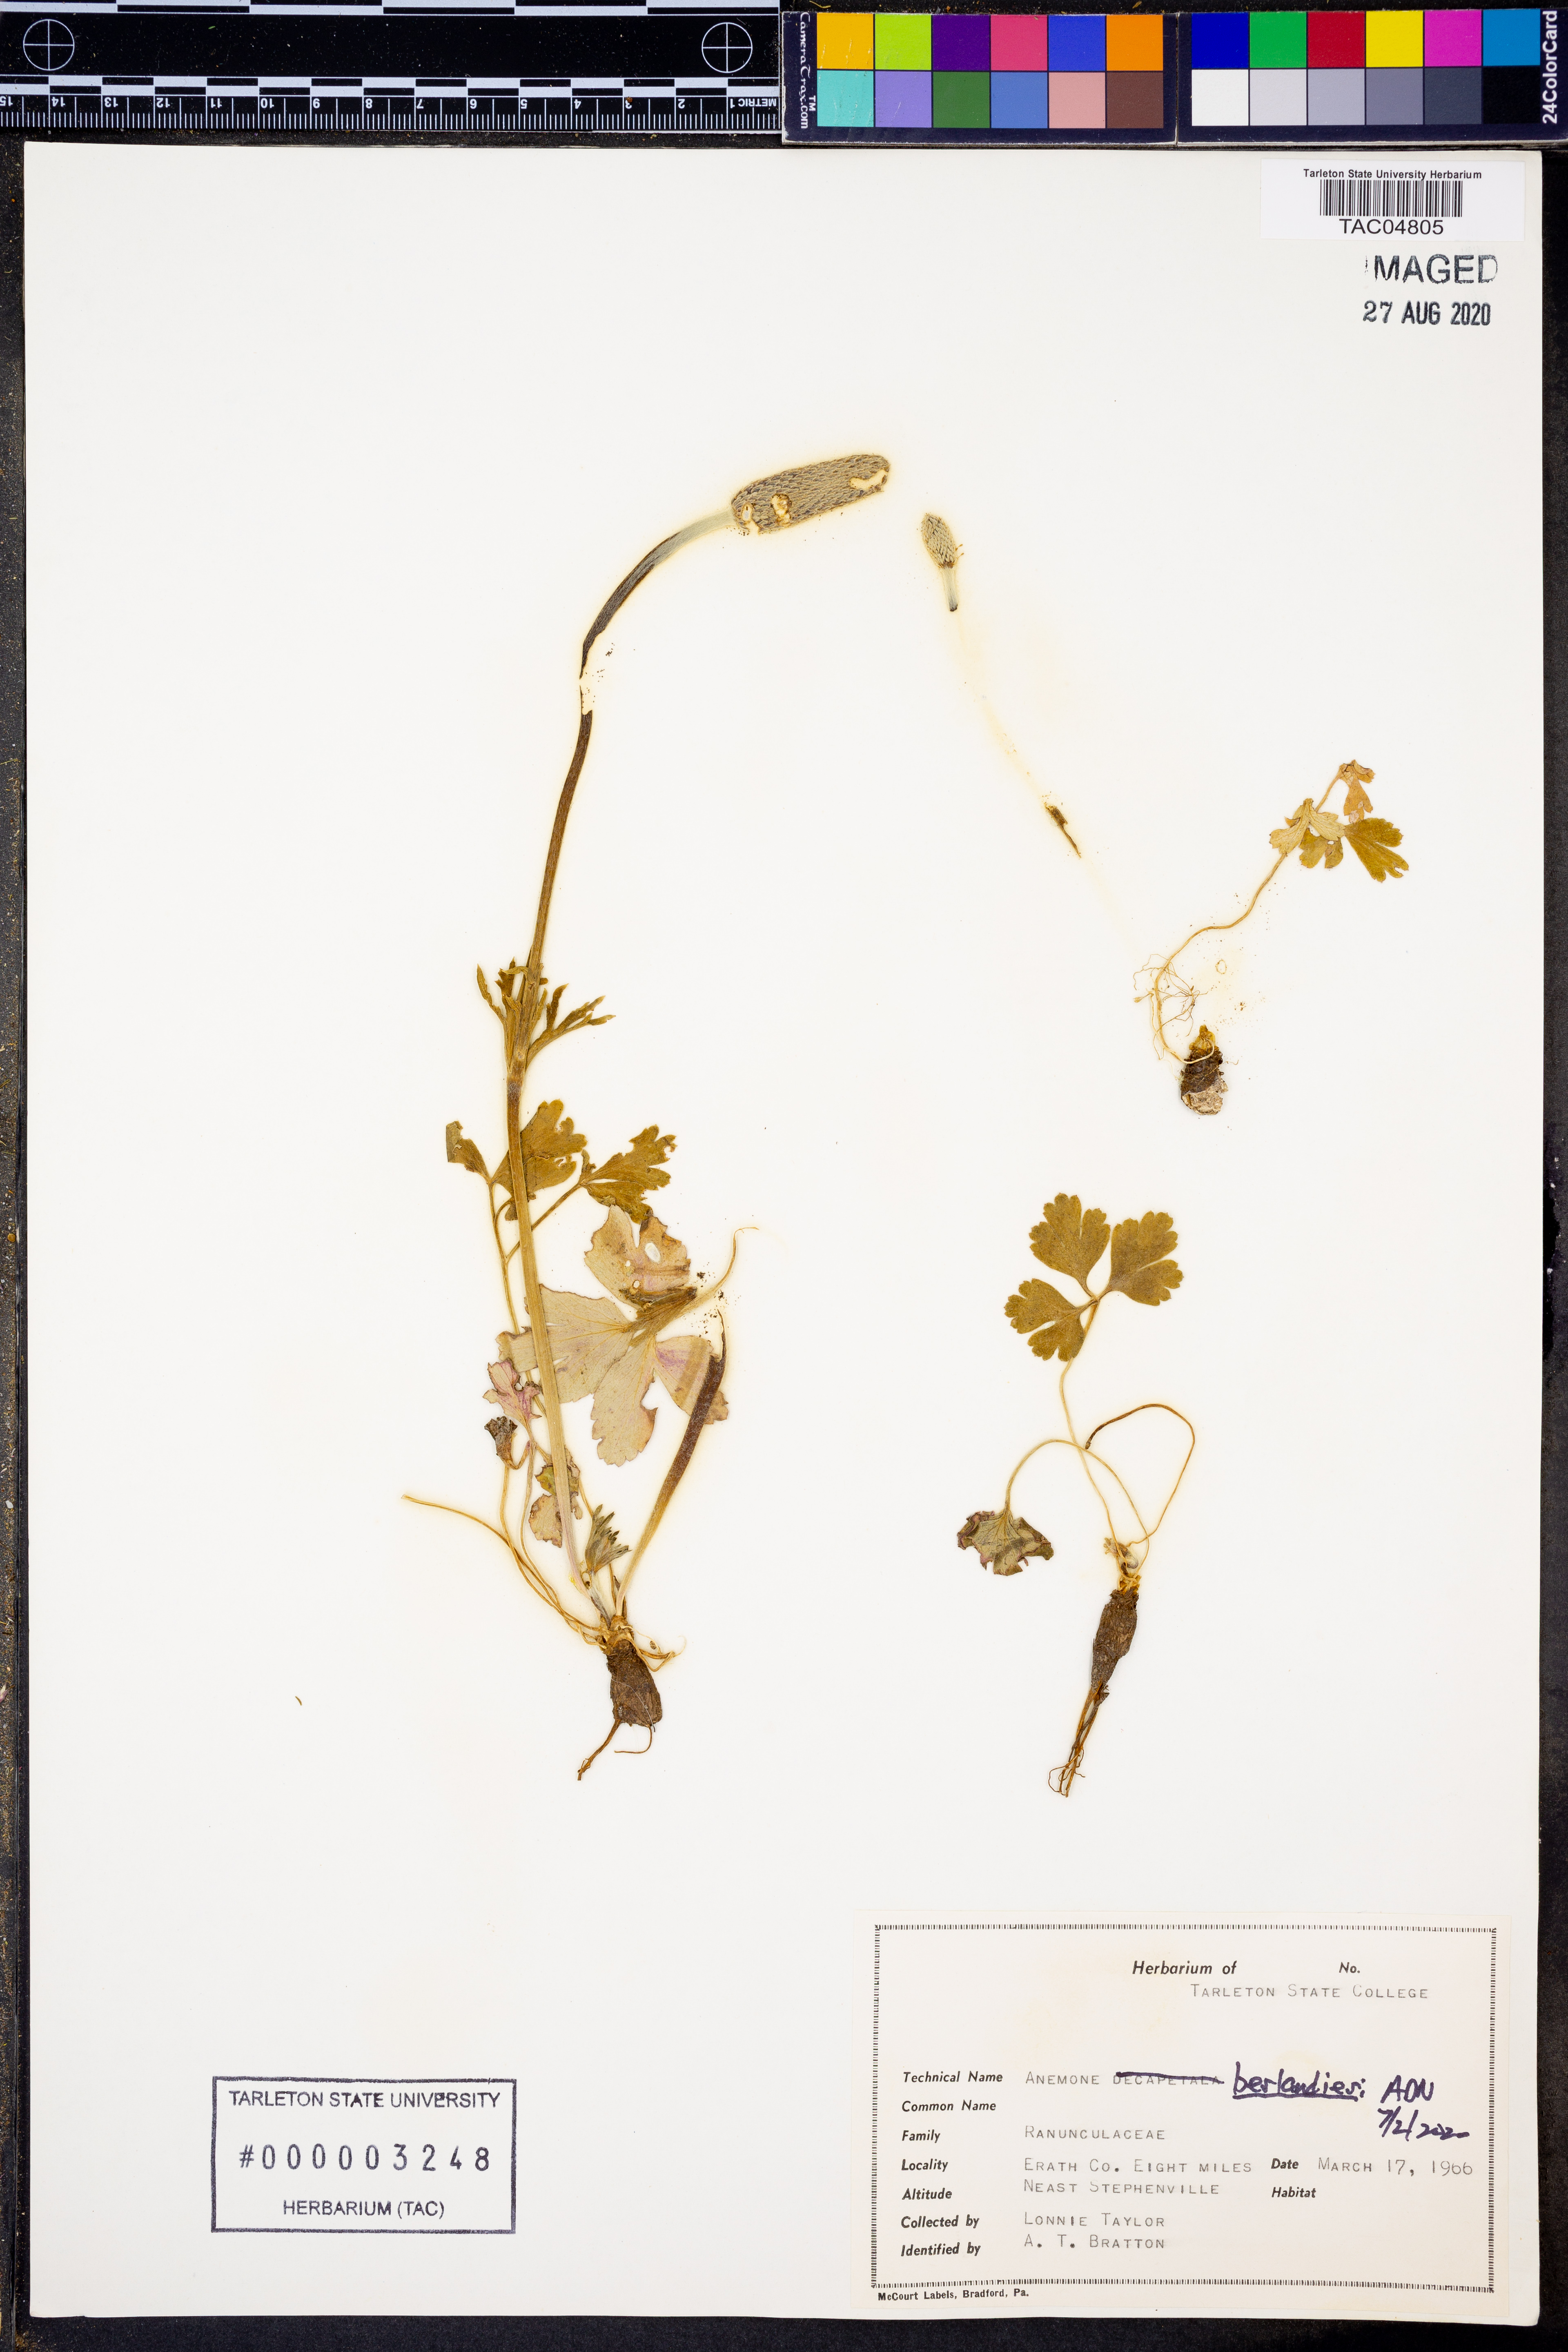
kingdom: Plantae
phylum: Tracheophyta
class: Magnoliopsida
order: Ranunculales
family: Ranunculaceae
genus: Anemone
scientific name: Anemone berlandieri
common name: Ten-petal anemone
